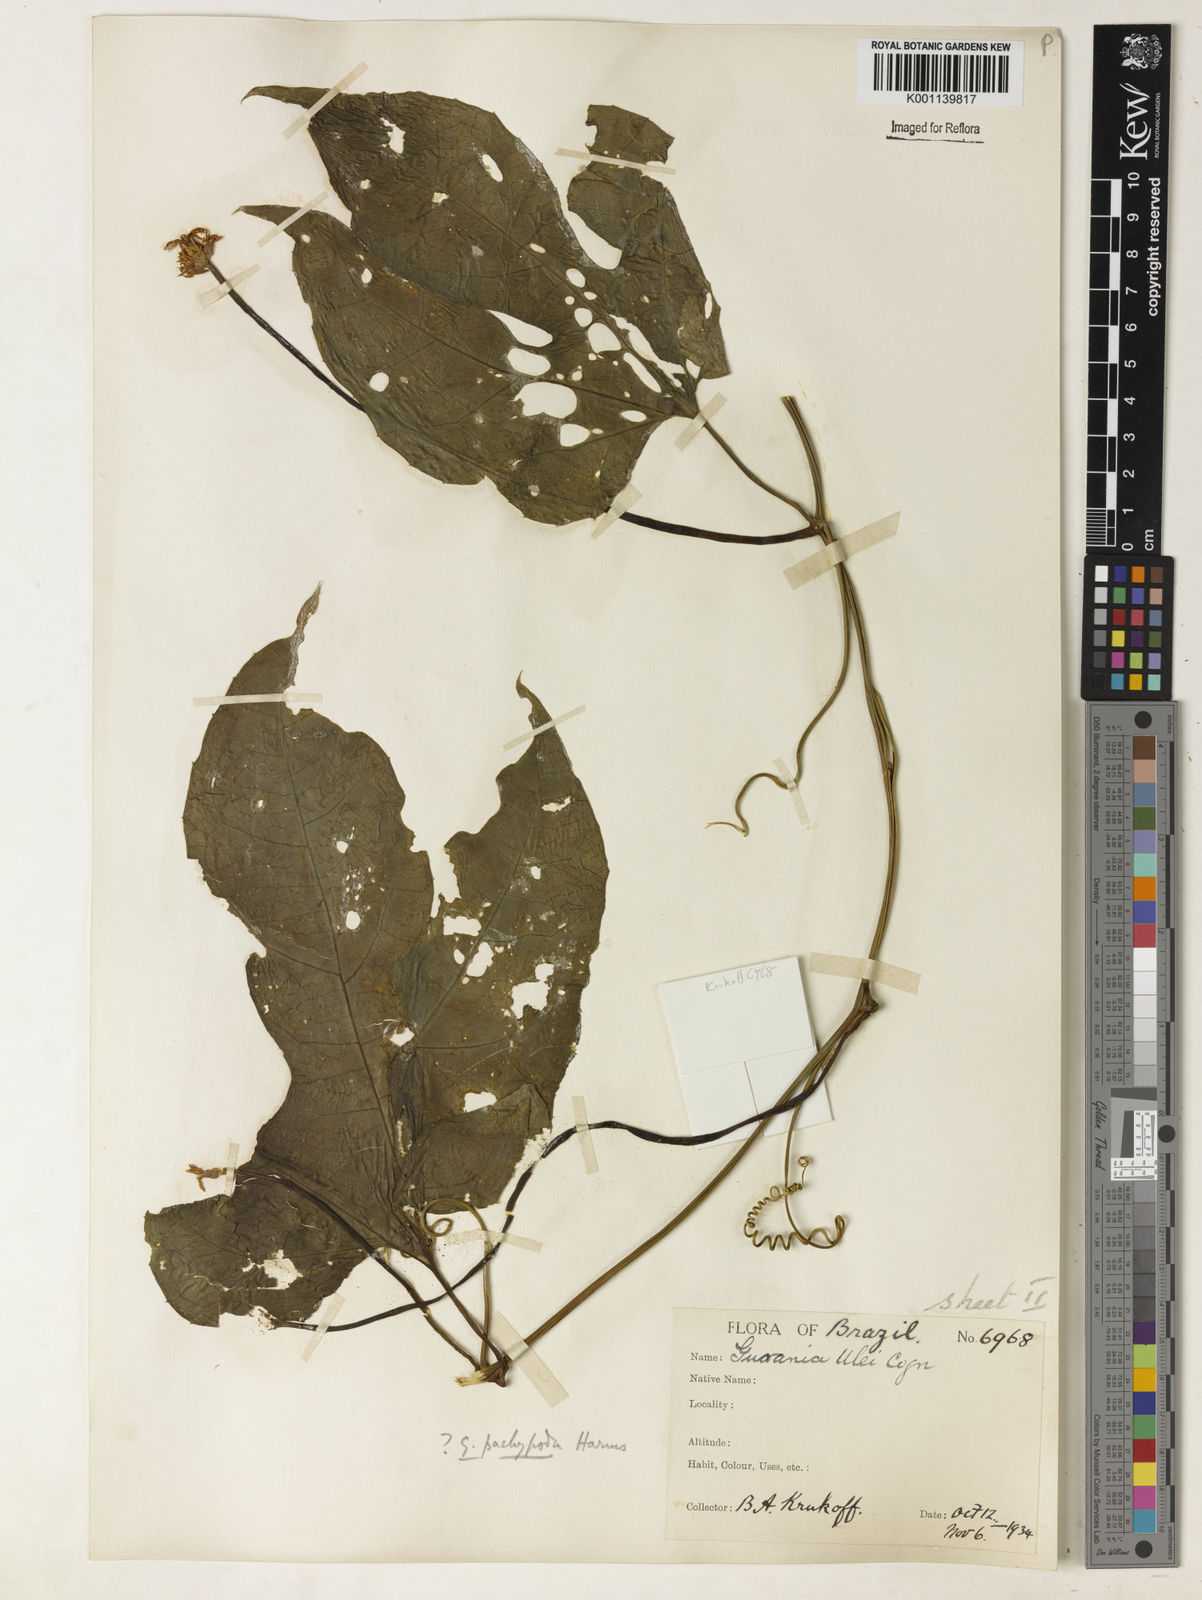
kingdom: Plantae
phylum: Tracheophyta
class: Magnoliopsida
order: Cucurbitales
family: Cucurbitaceae
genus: Gurania
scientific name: Gurania acuminata
